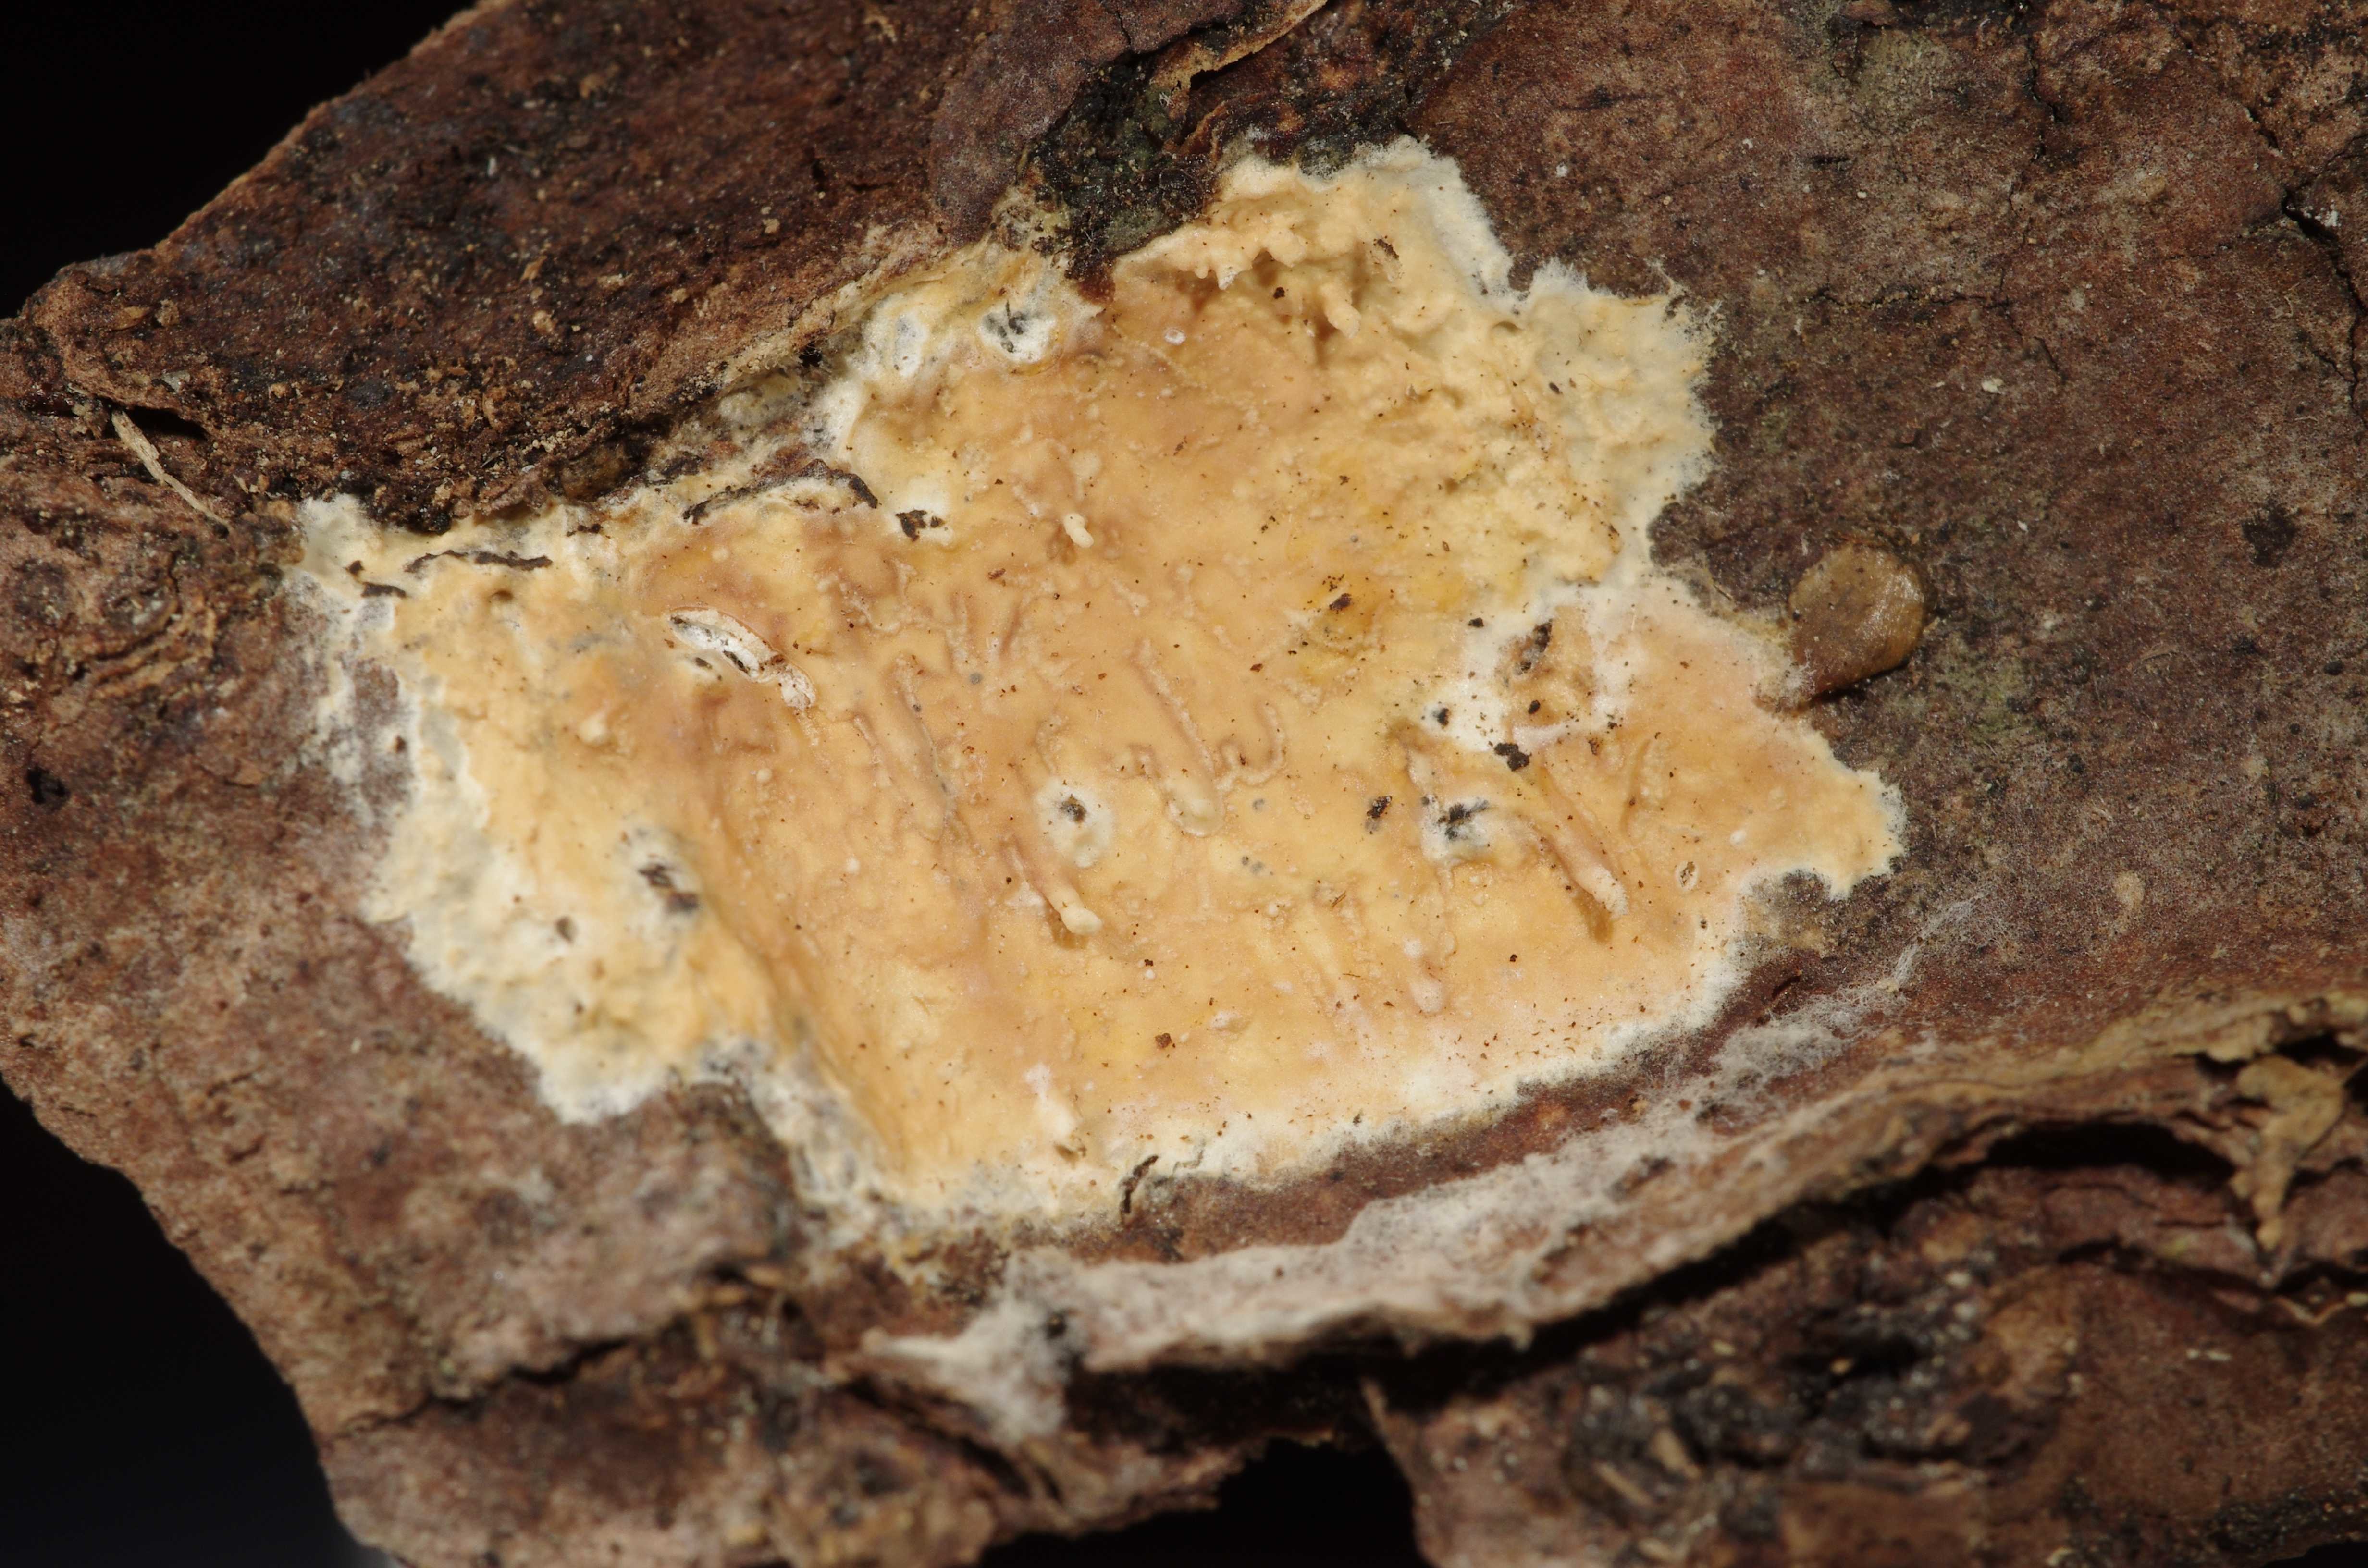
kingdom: Fungi
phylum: Basidiomycota
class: Agaricomycetes
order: Hymenochaetales
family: Schizoporaceae
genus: Xylodon
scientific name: Xylodon radula
